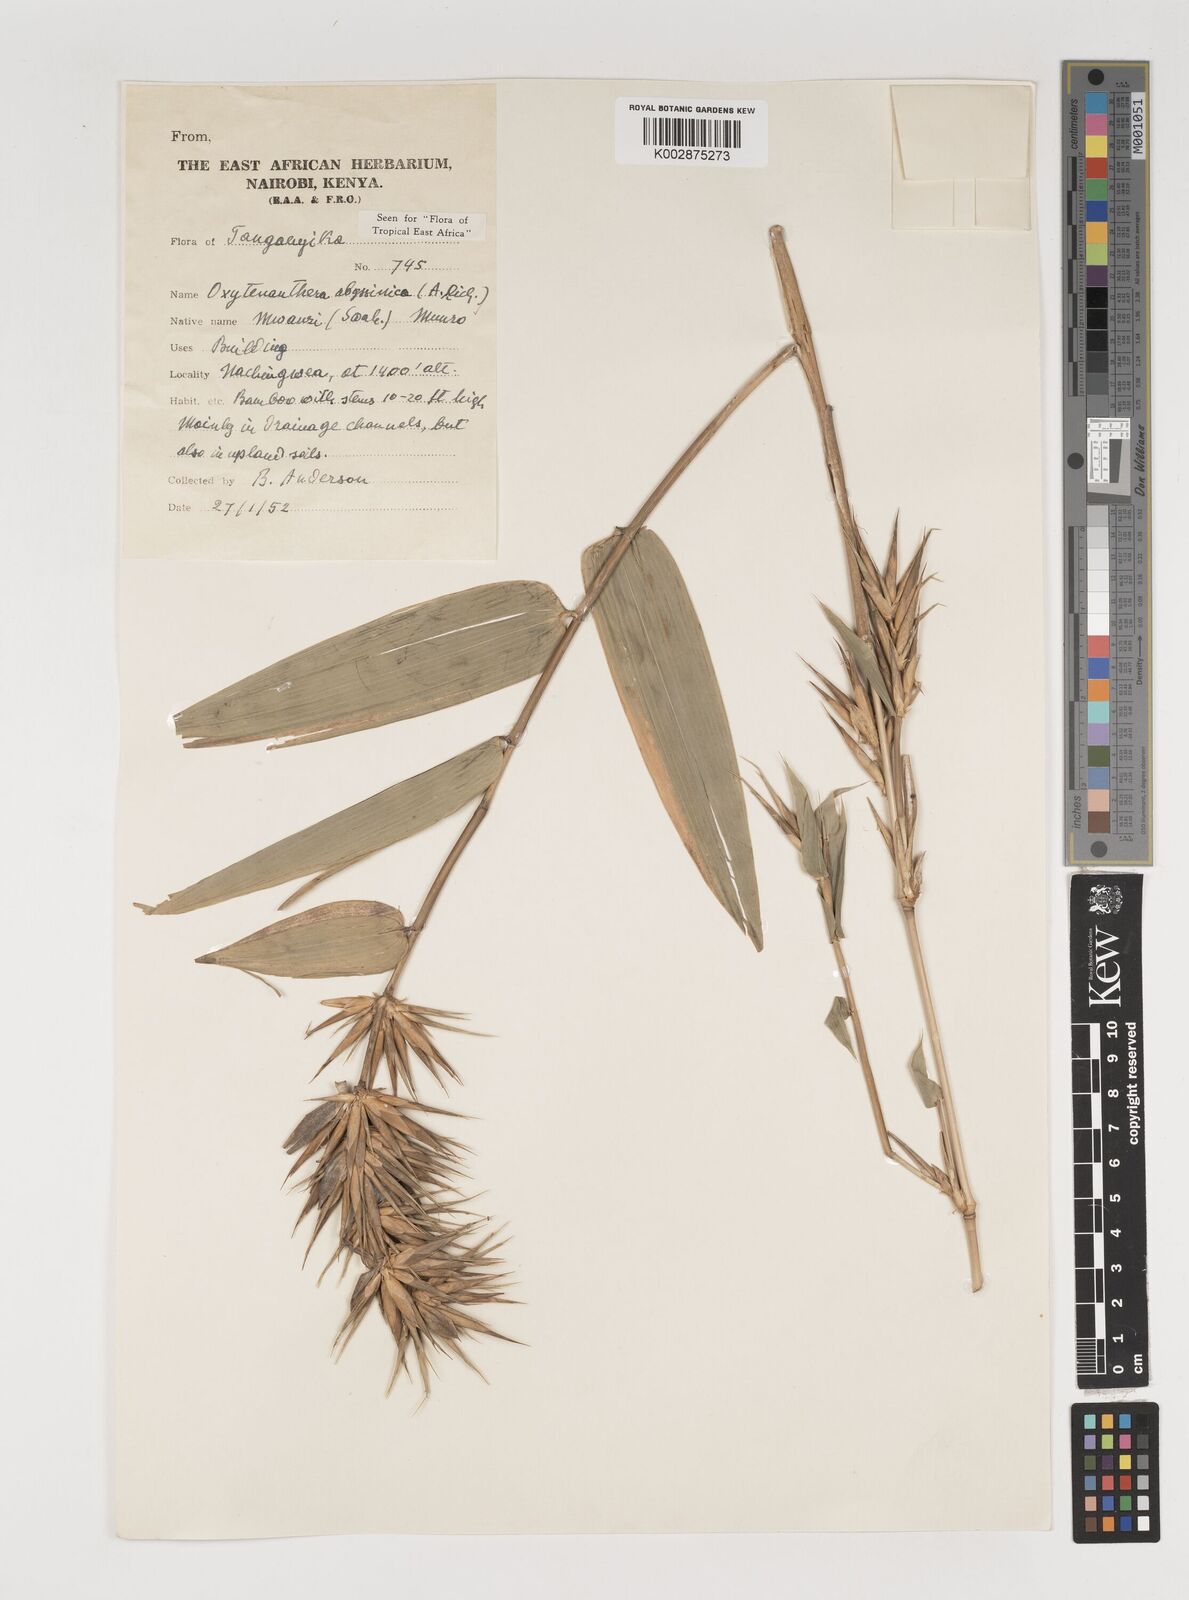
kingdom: Plantae
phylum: Tracheophyta
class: Liliopsida
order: Poales
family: Poaceae
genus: Oxytenanthera
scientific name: Oxytenanthera abyssinica
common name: Wine bamboo
